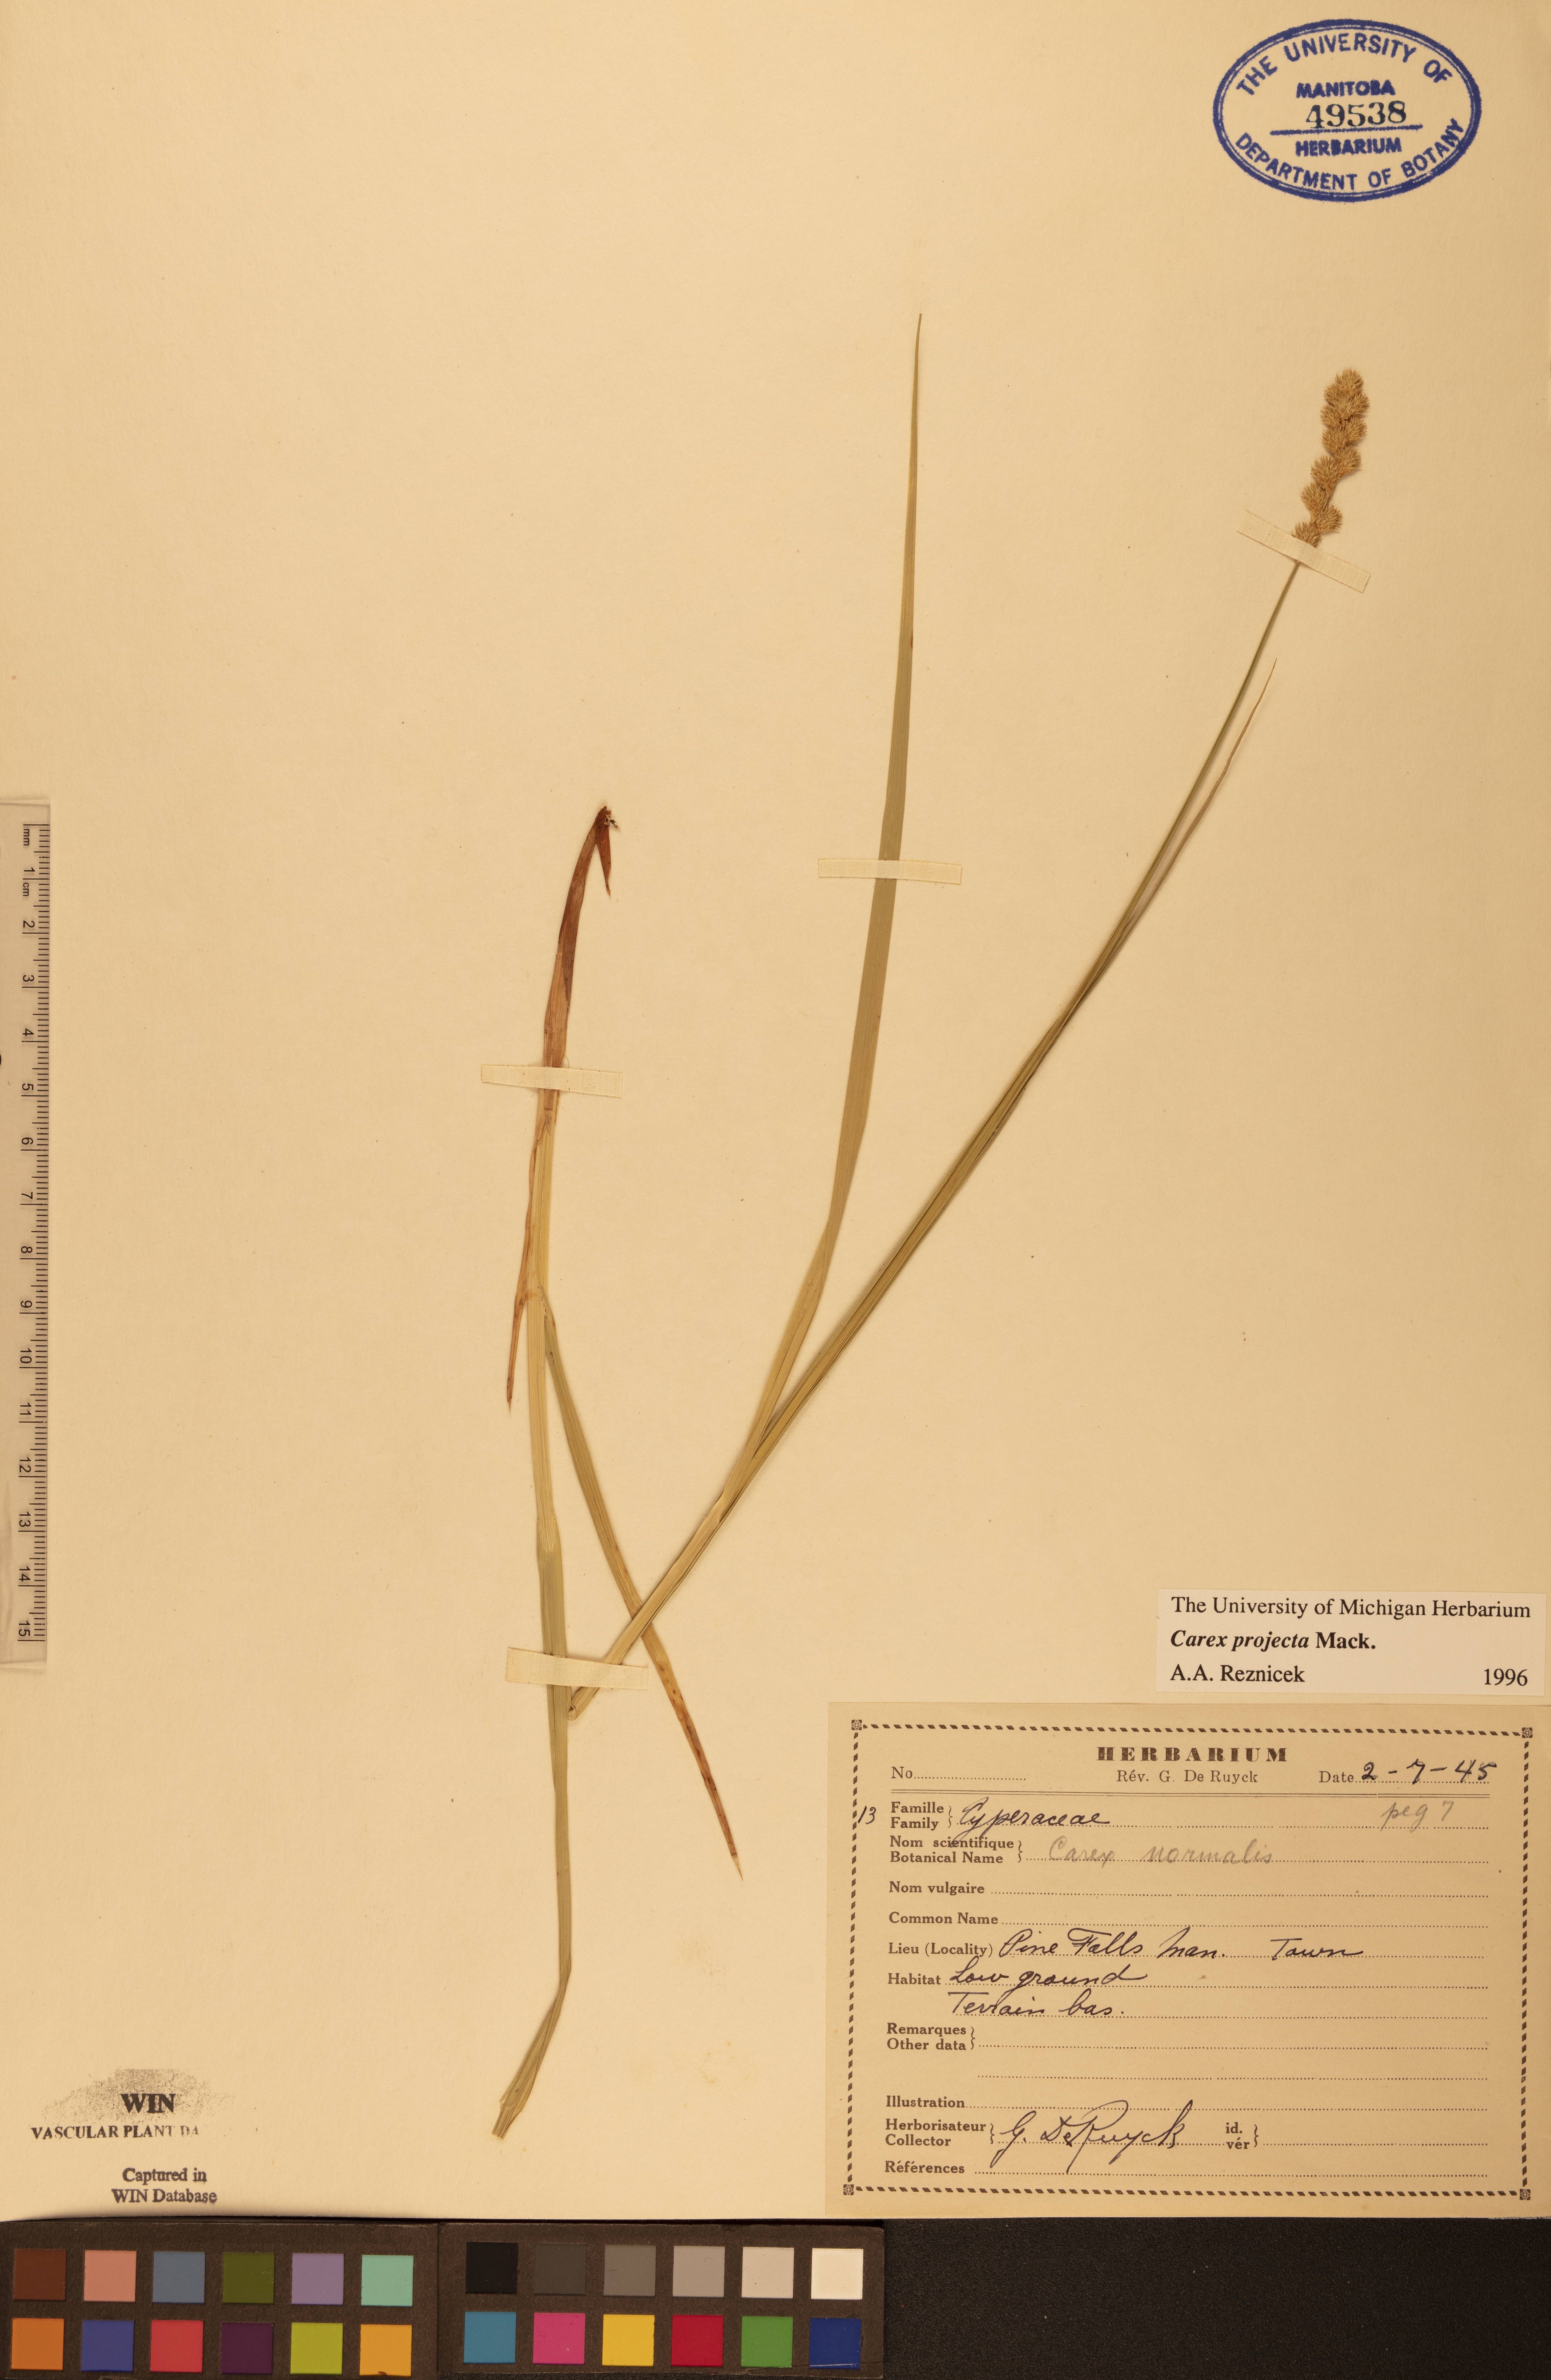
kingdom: Plantae
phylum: Tracheophyta
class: Liliopsida
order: Poales
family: Cyperaceae
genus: Carex
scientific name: Carex projecta
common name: Loose-headed oval sedge
